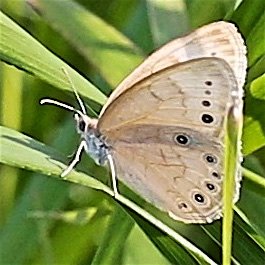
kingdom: Animalia
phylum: Arthropoda
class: Insecta
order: Lepidoptera
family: Nymphalidae
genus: Lethe
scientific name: Lethe eurydice
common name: Eyed Brown
